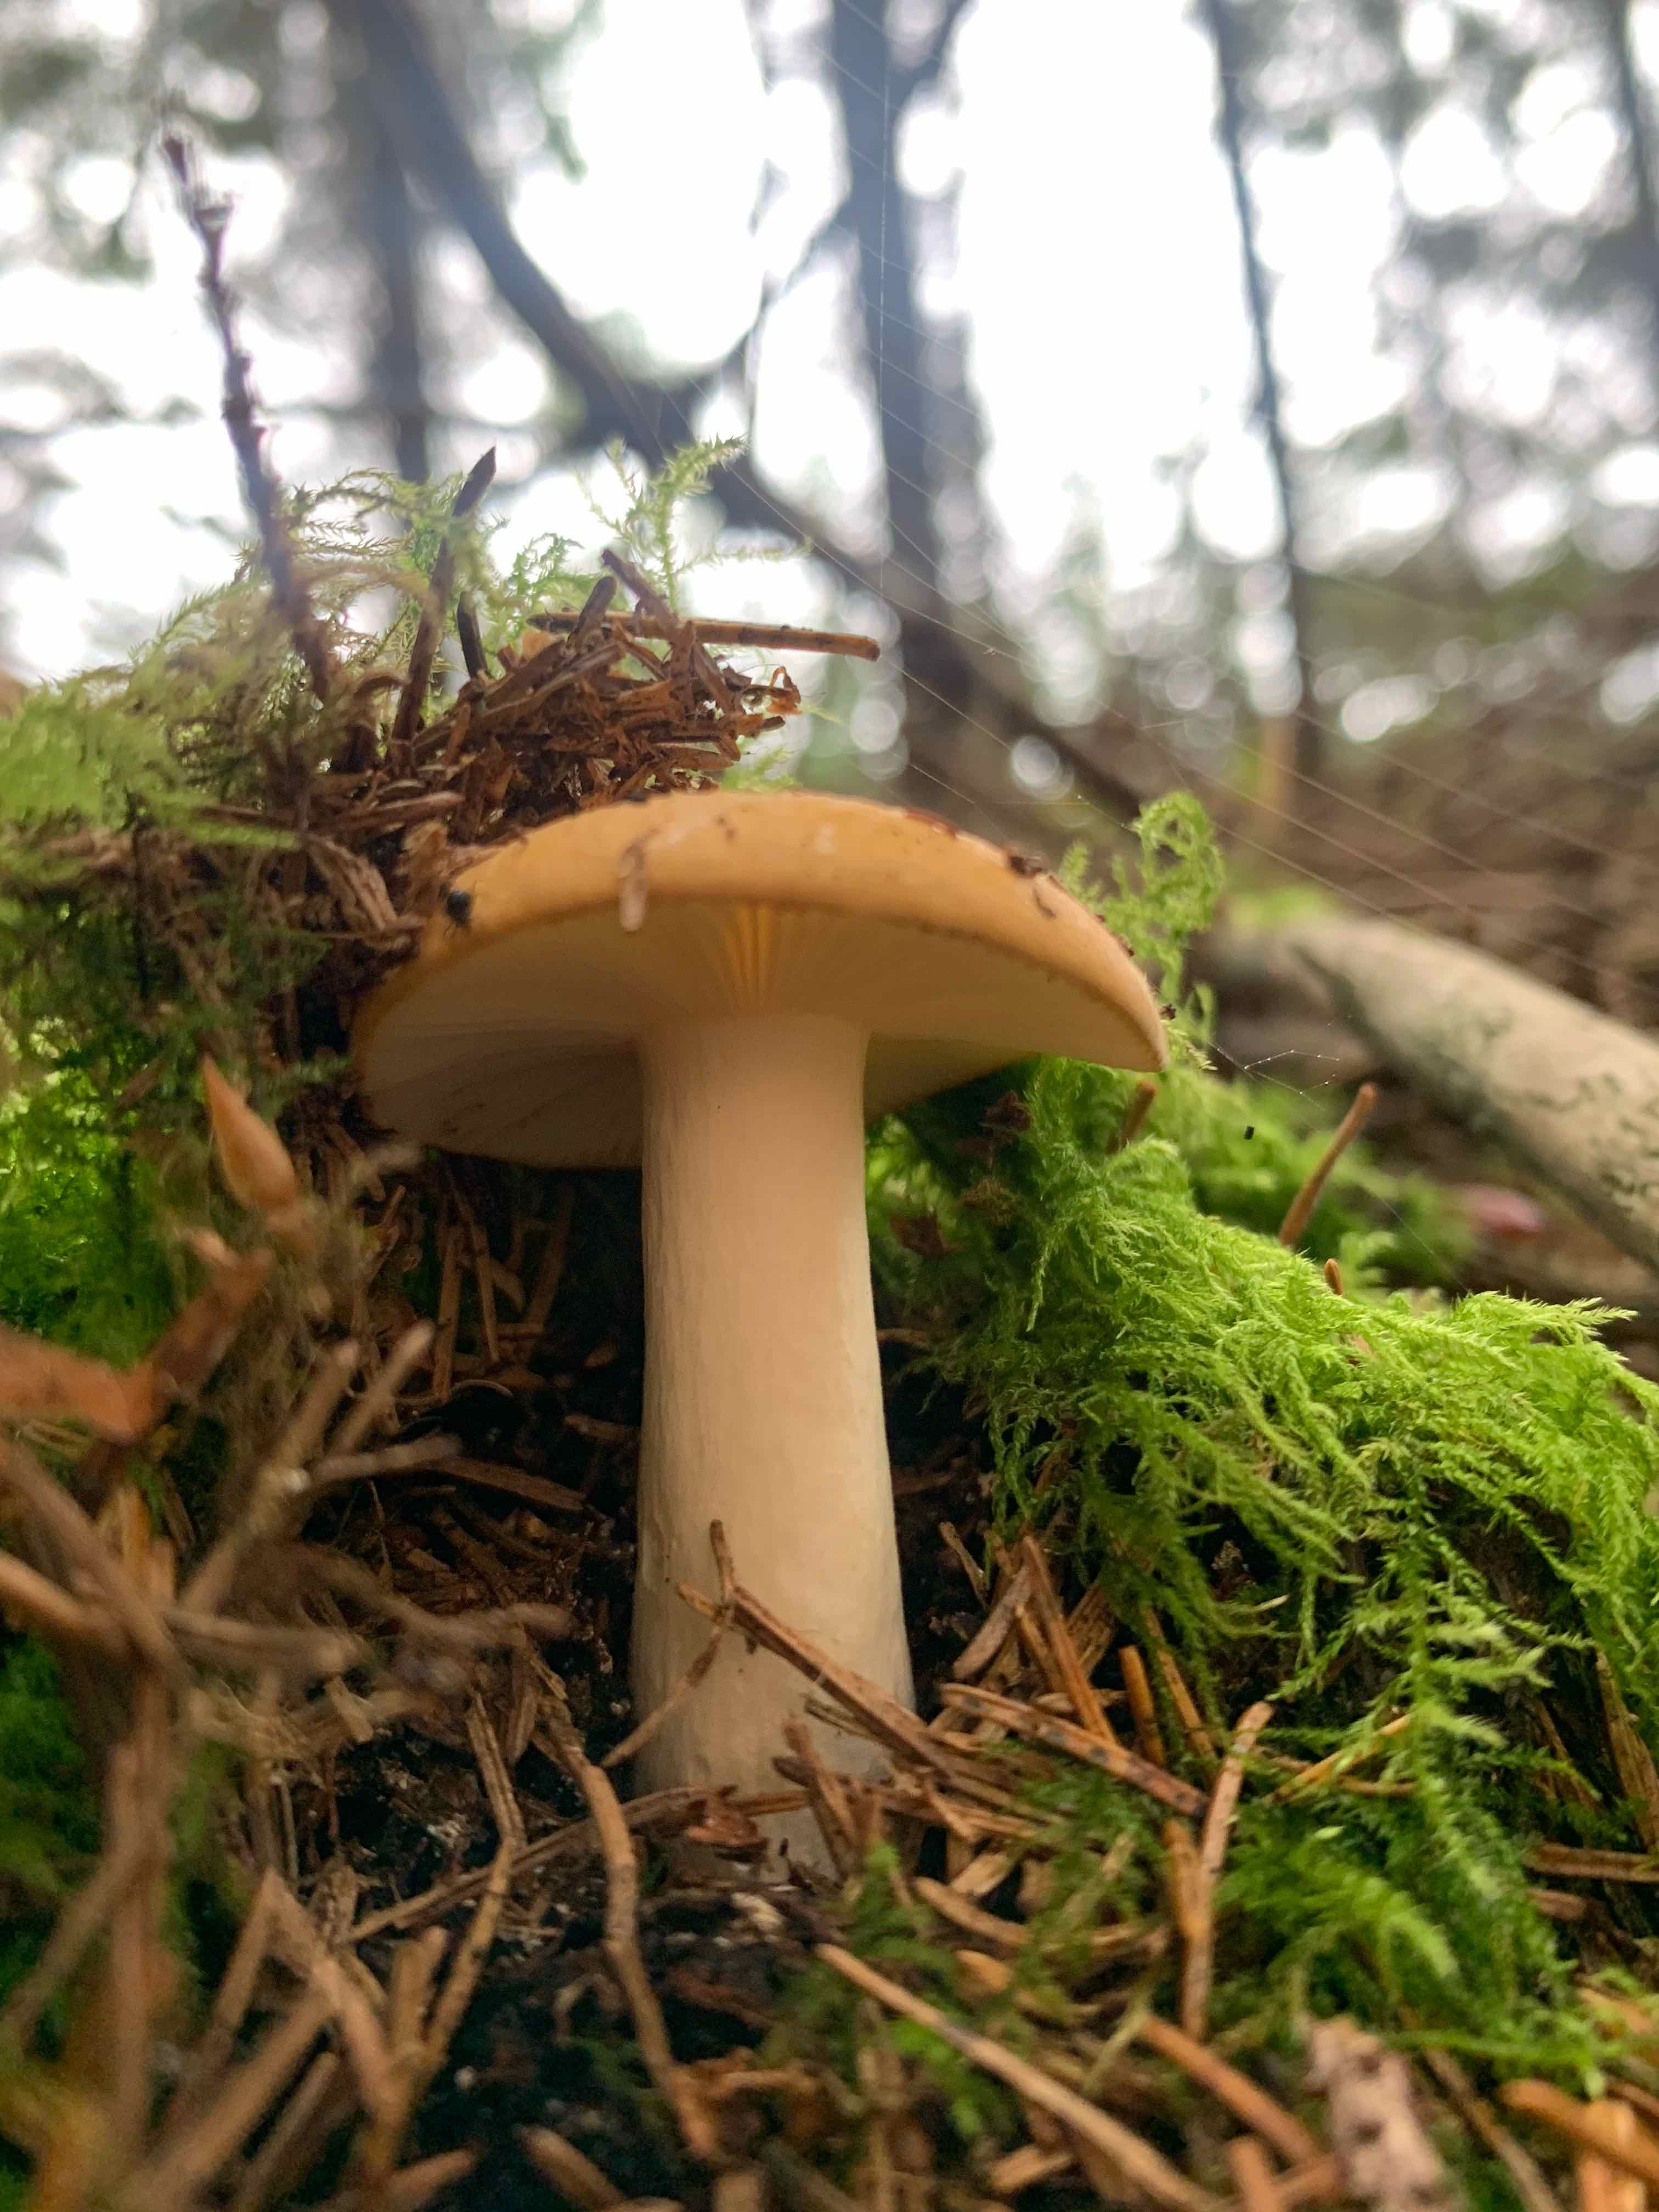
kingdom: Fungi
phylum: Basidiomycota
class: Agaricomycetes
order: Russulales
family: Russulaceae
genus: Russula
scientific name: Russula
